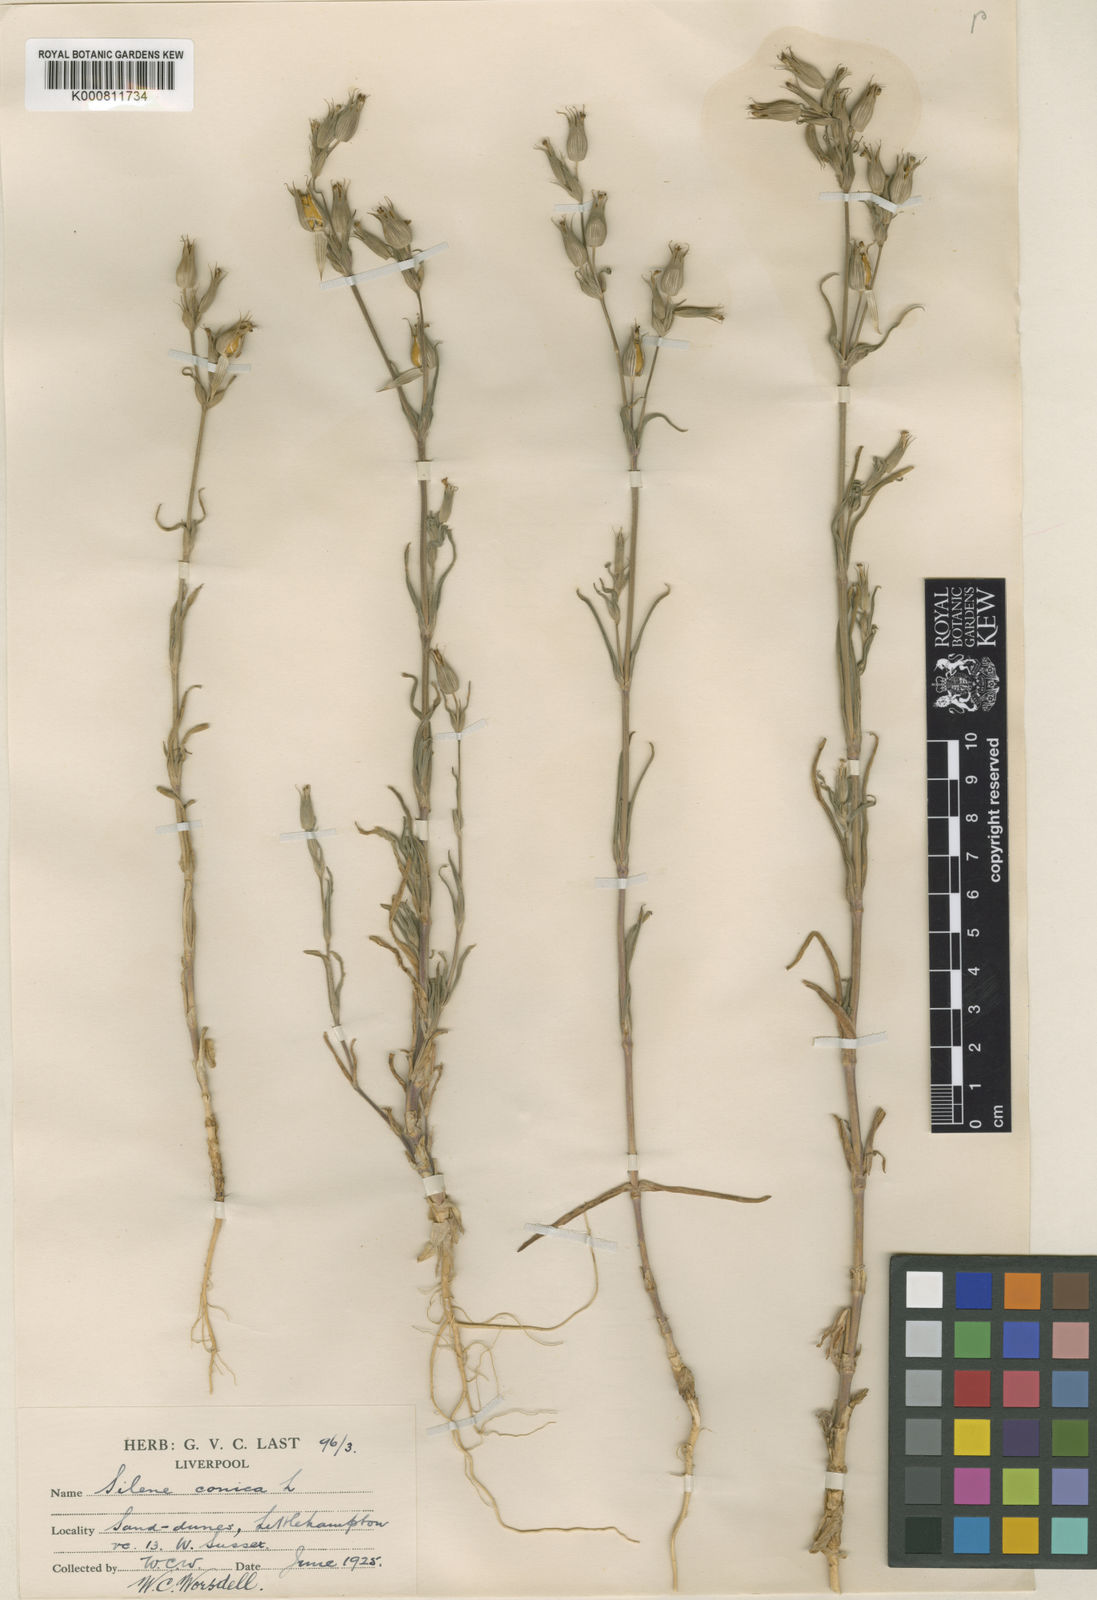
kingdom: Plantae
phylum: Tracheophyta
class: Magnoliopsida
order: Caryophyllales
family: Caryophyllaceae
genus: Silene
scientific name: Silene conica
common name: Sand catchfly
